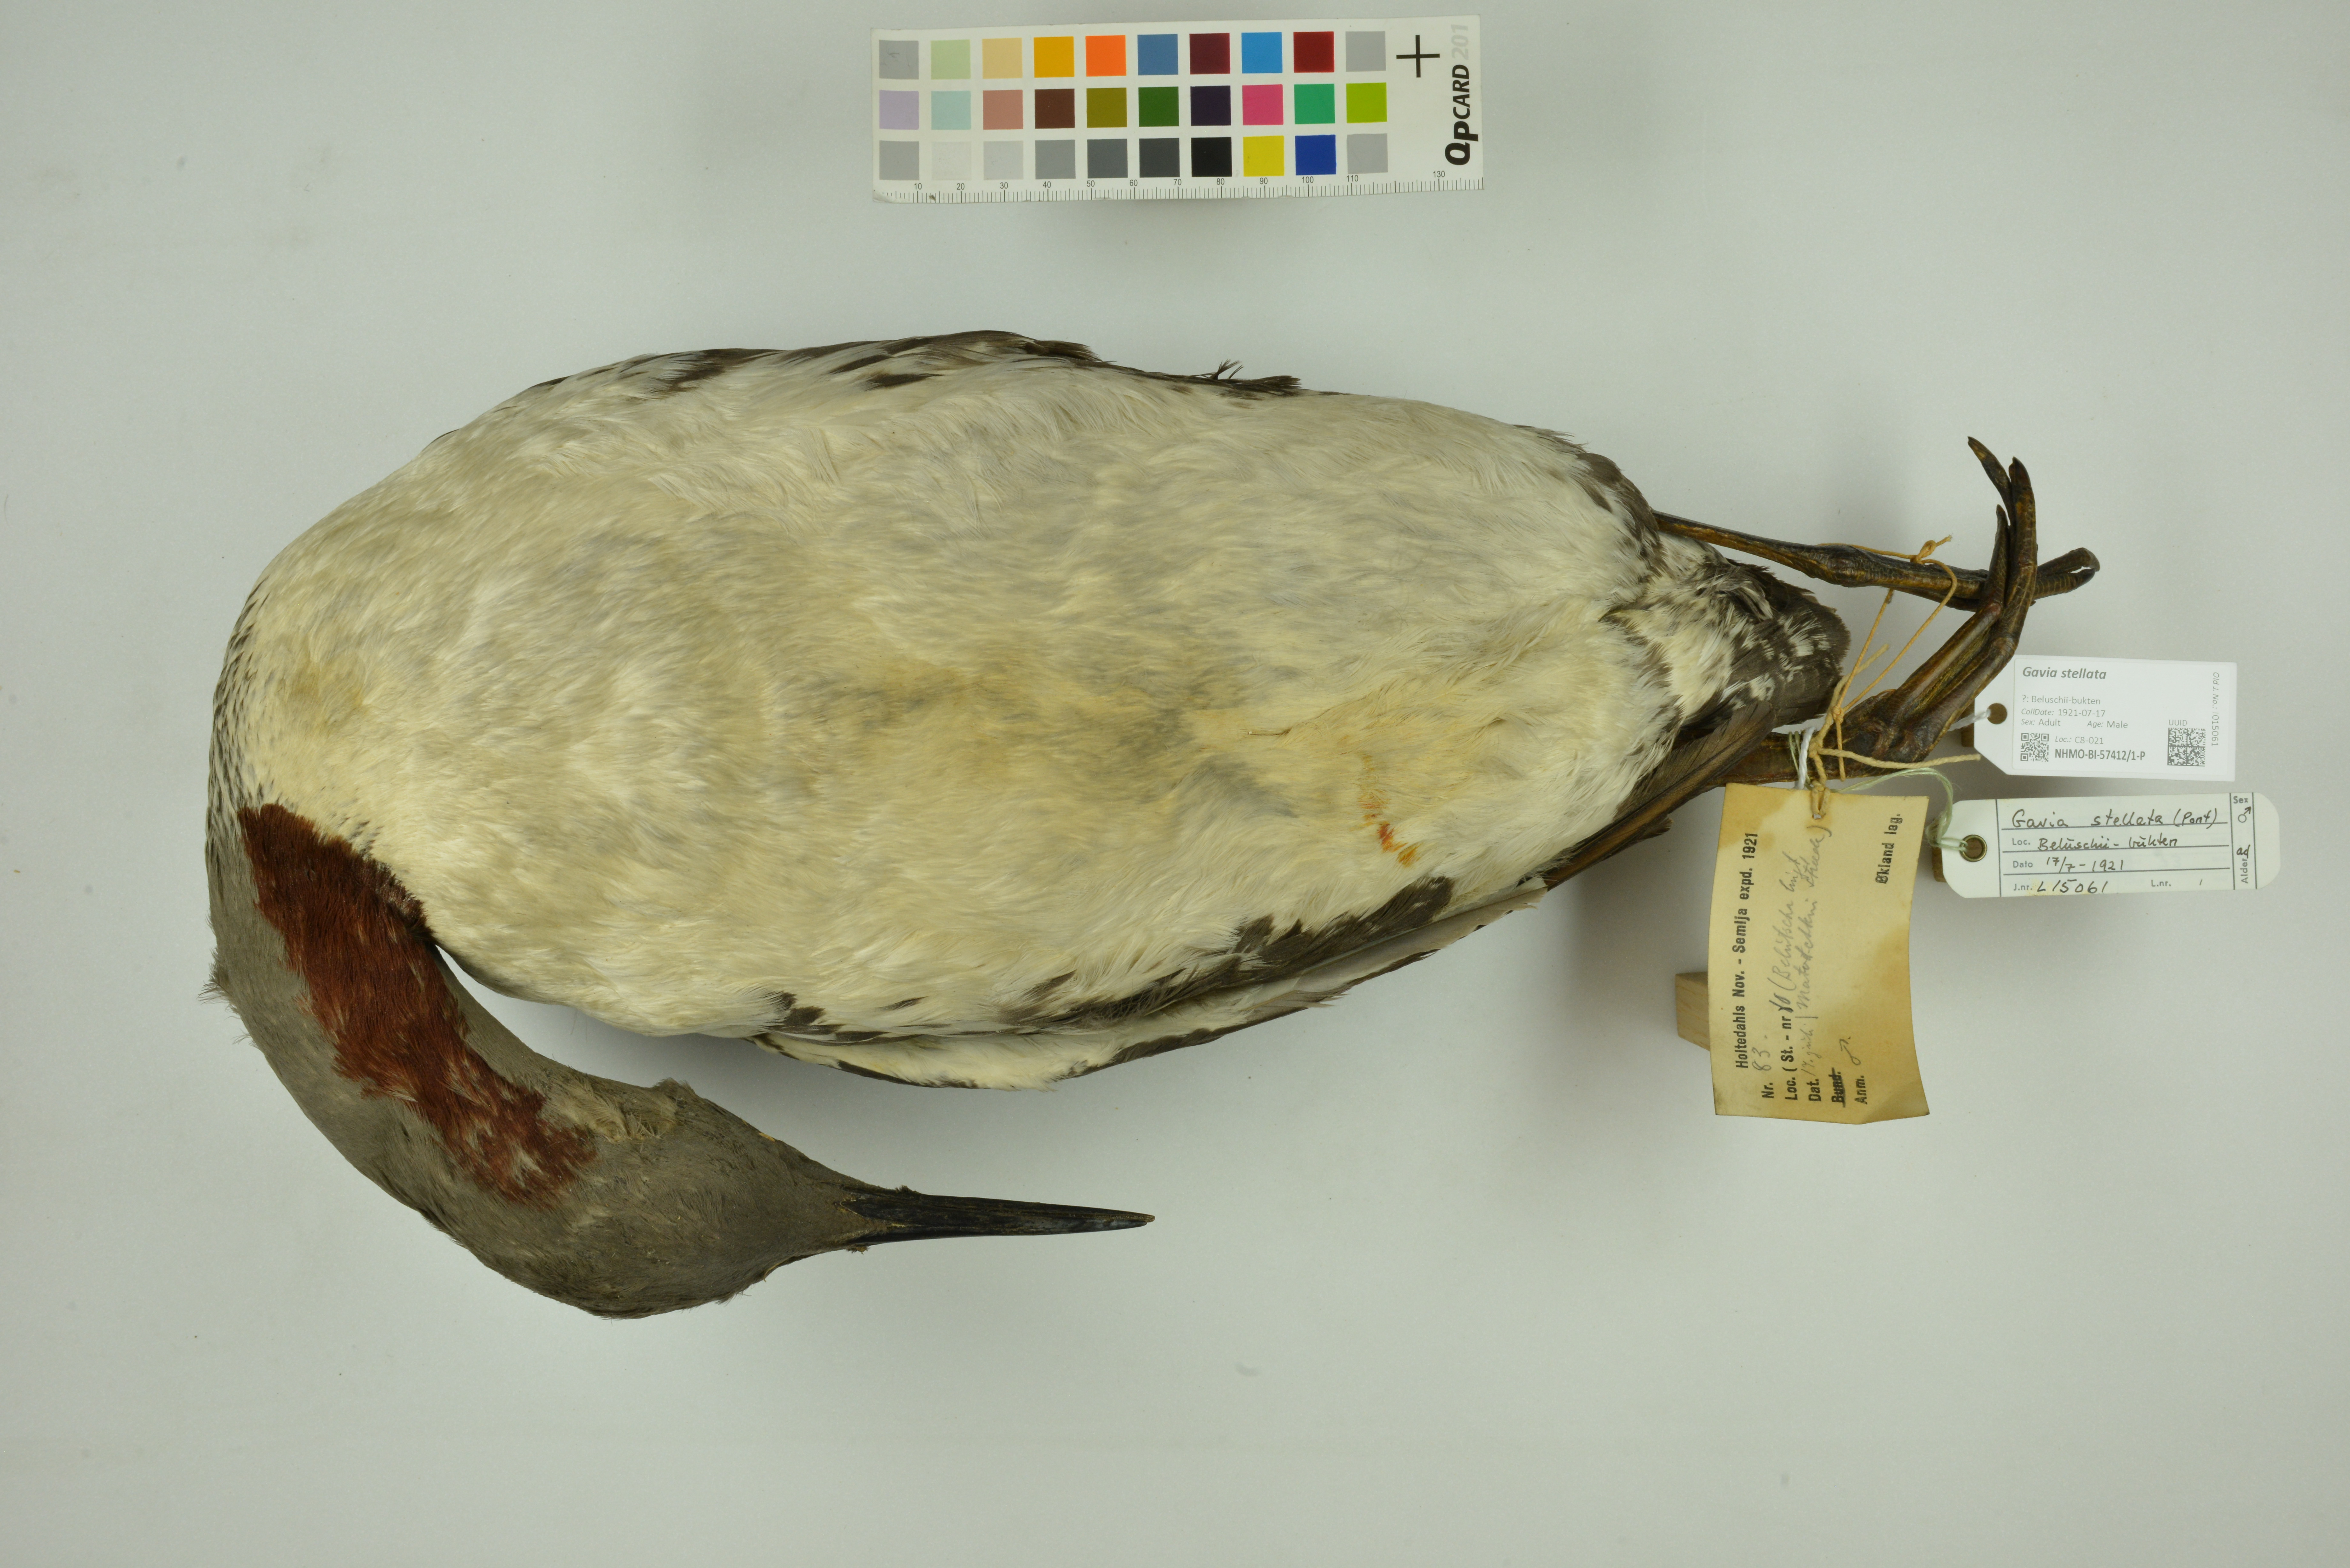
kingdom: Animalia
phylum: Chordata
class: Aves
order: Gaviiformes
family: Gaviidae
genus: Gavia
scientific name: Gavia stellata
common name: Red-throated loon
